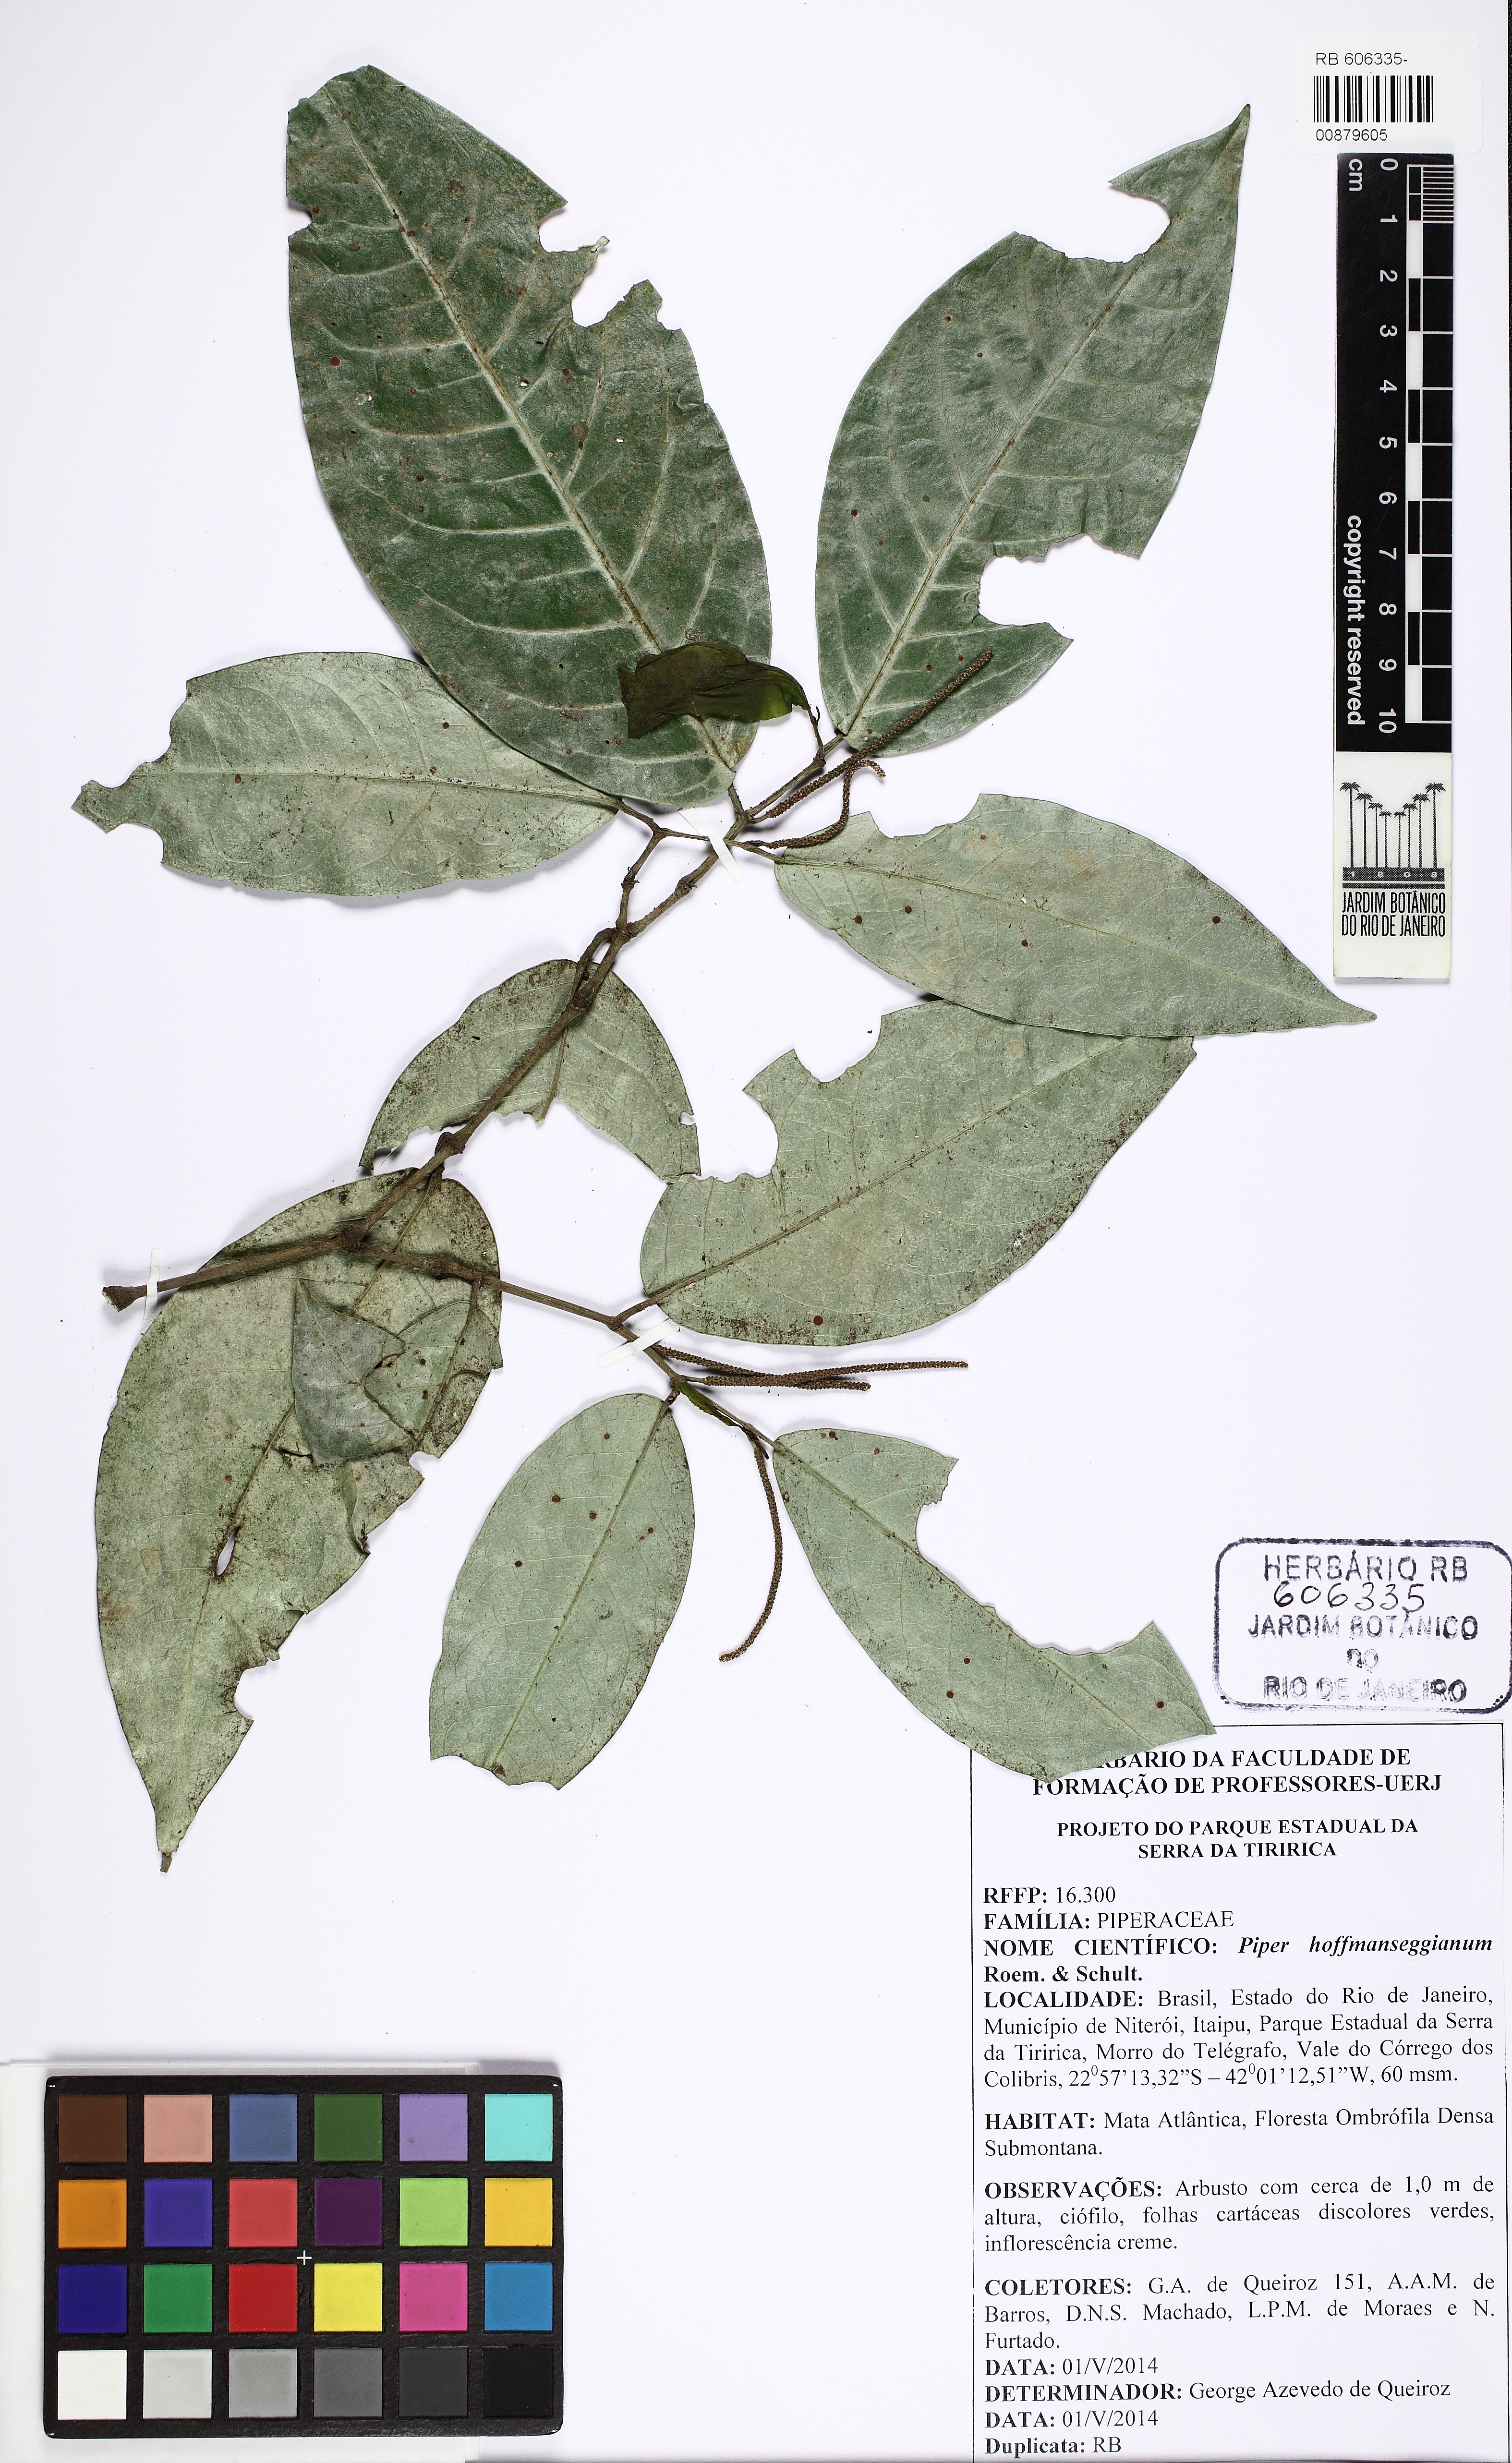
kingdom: Plantae
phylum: Tracheophyta
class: Magnoliopsida
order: Piperales
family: Piperaceae
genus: Piper
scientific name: Piper hoffmannseggianum
